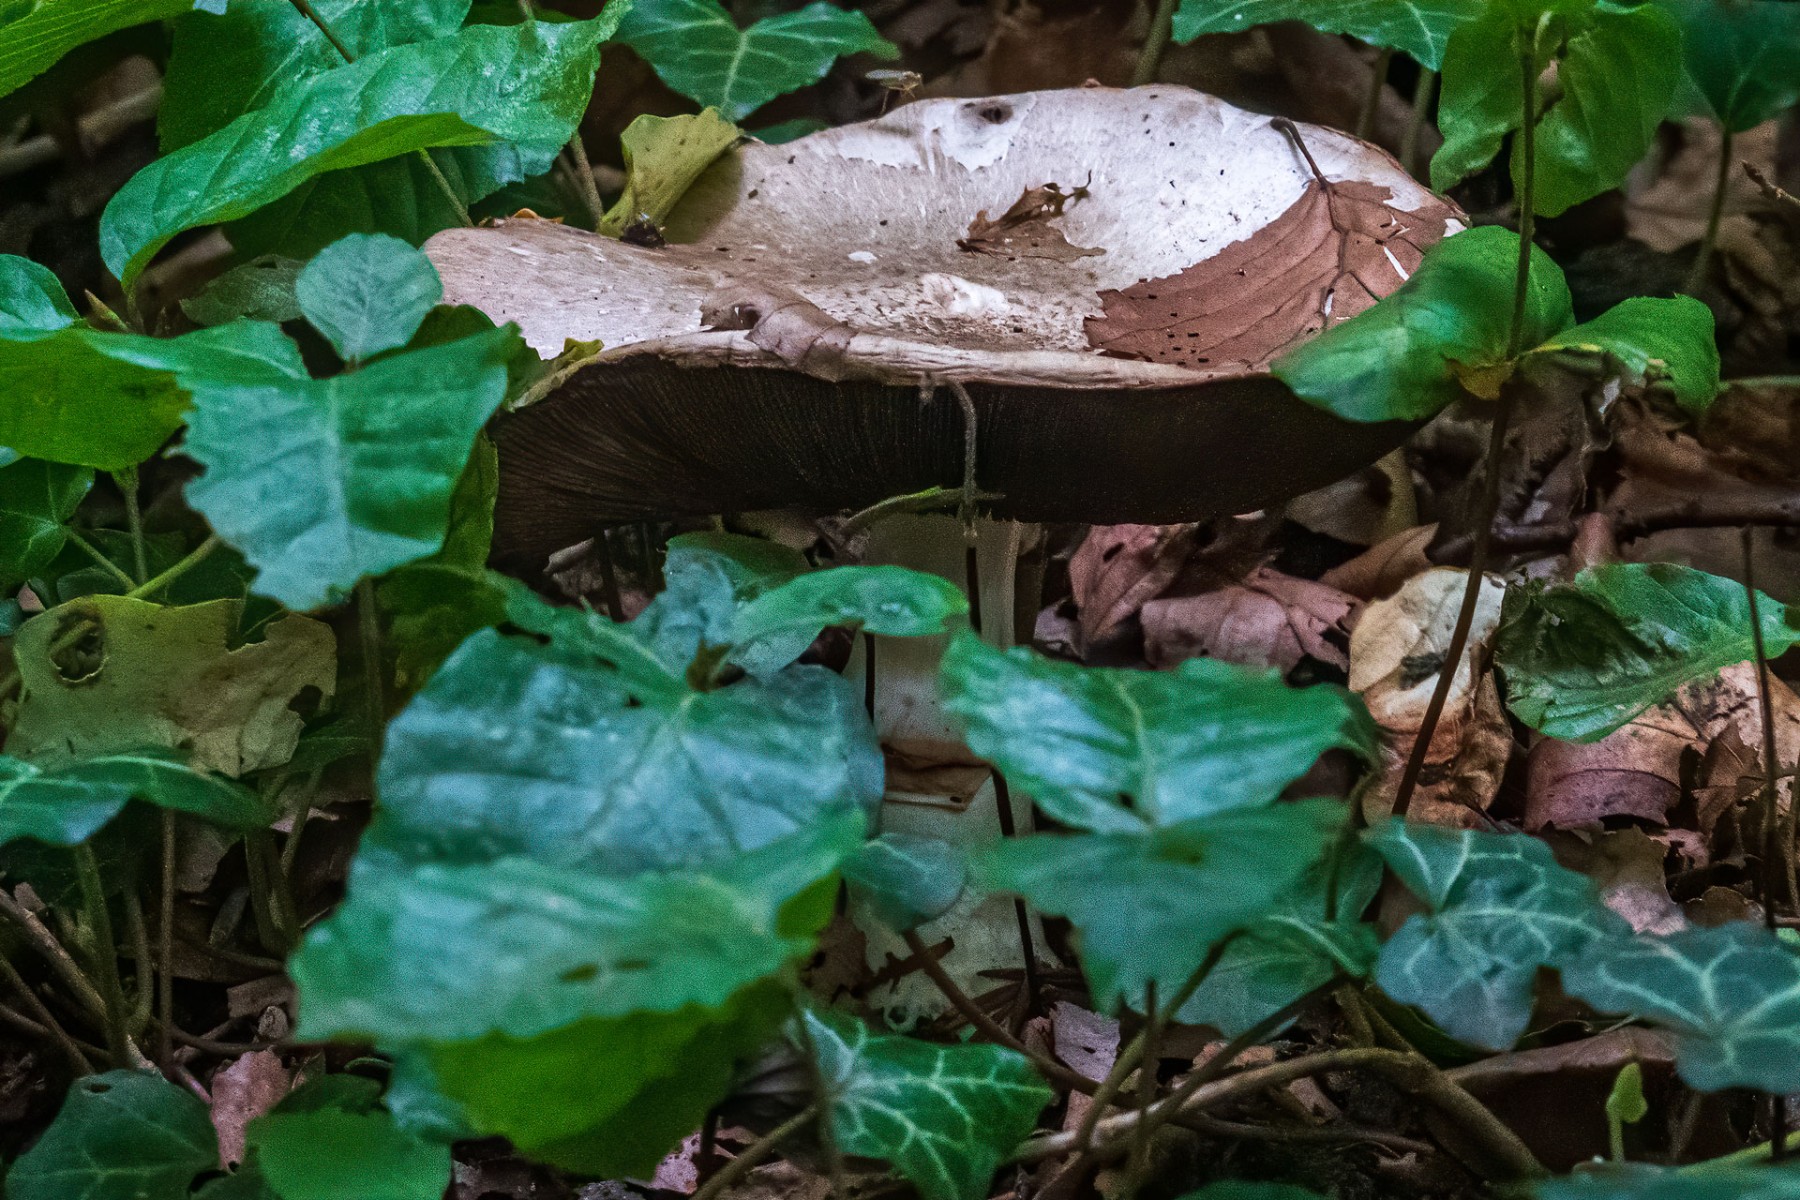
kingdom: Fungi
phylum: Basidiomycota
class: Agaricomycetes
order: Agaricales
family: Agaricaceae
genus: Agaricus
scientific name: Agaricus moelleri
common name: perlehøne-champignon
